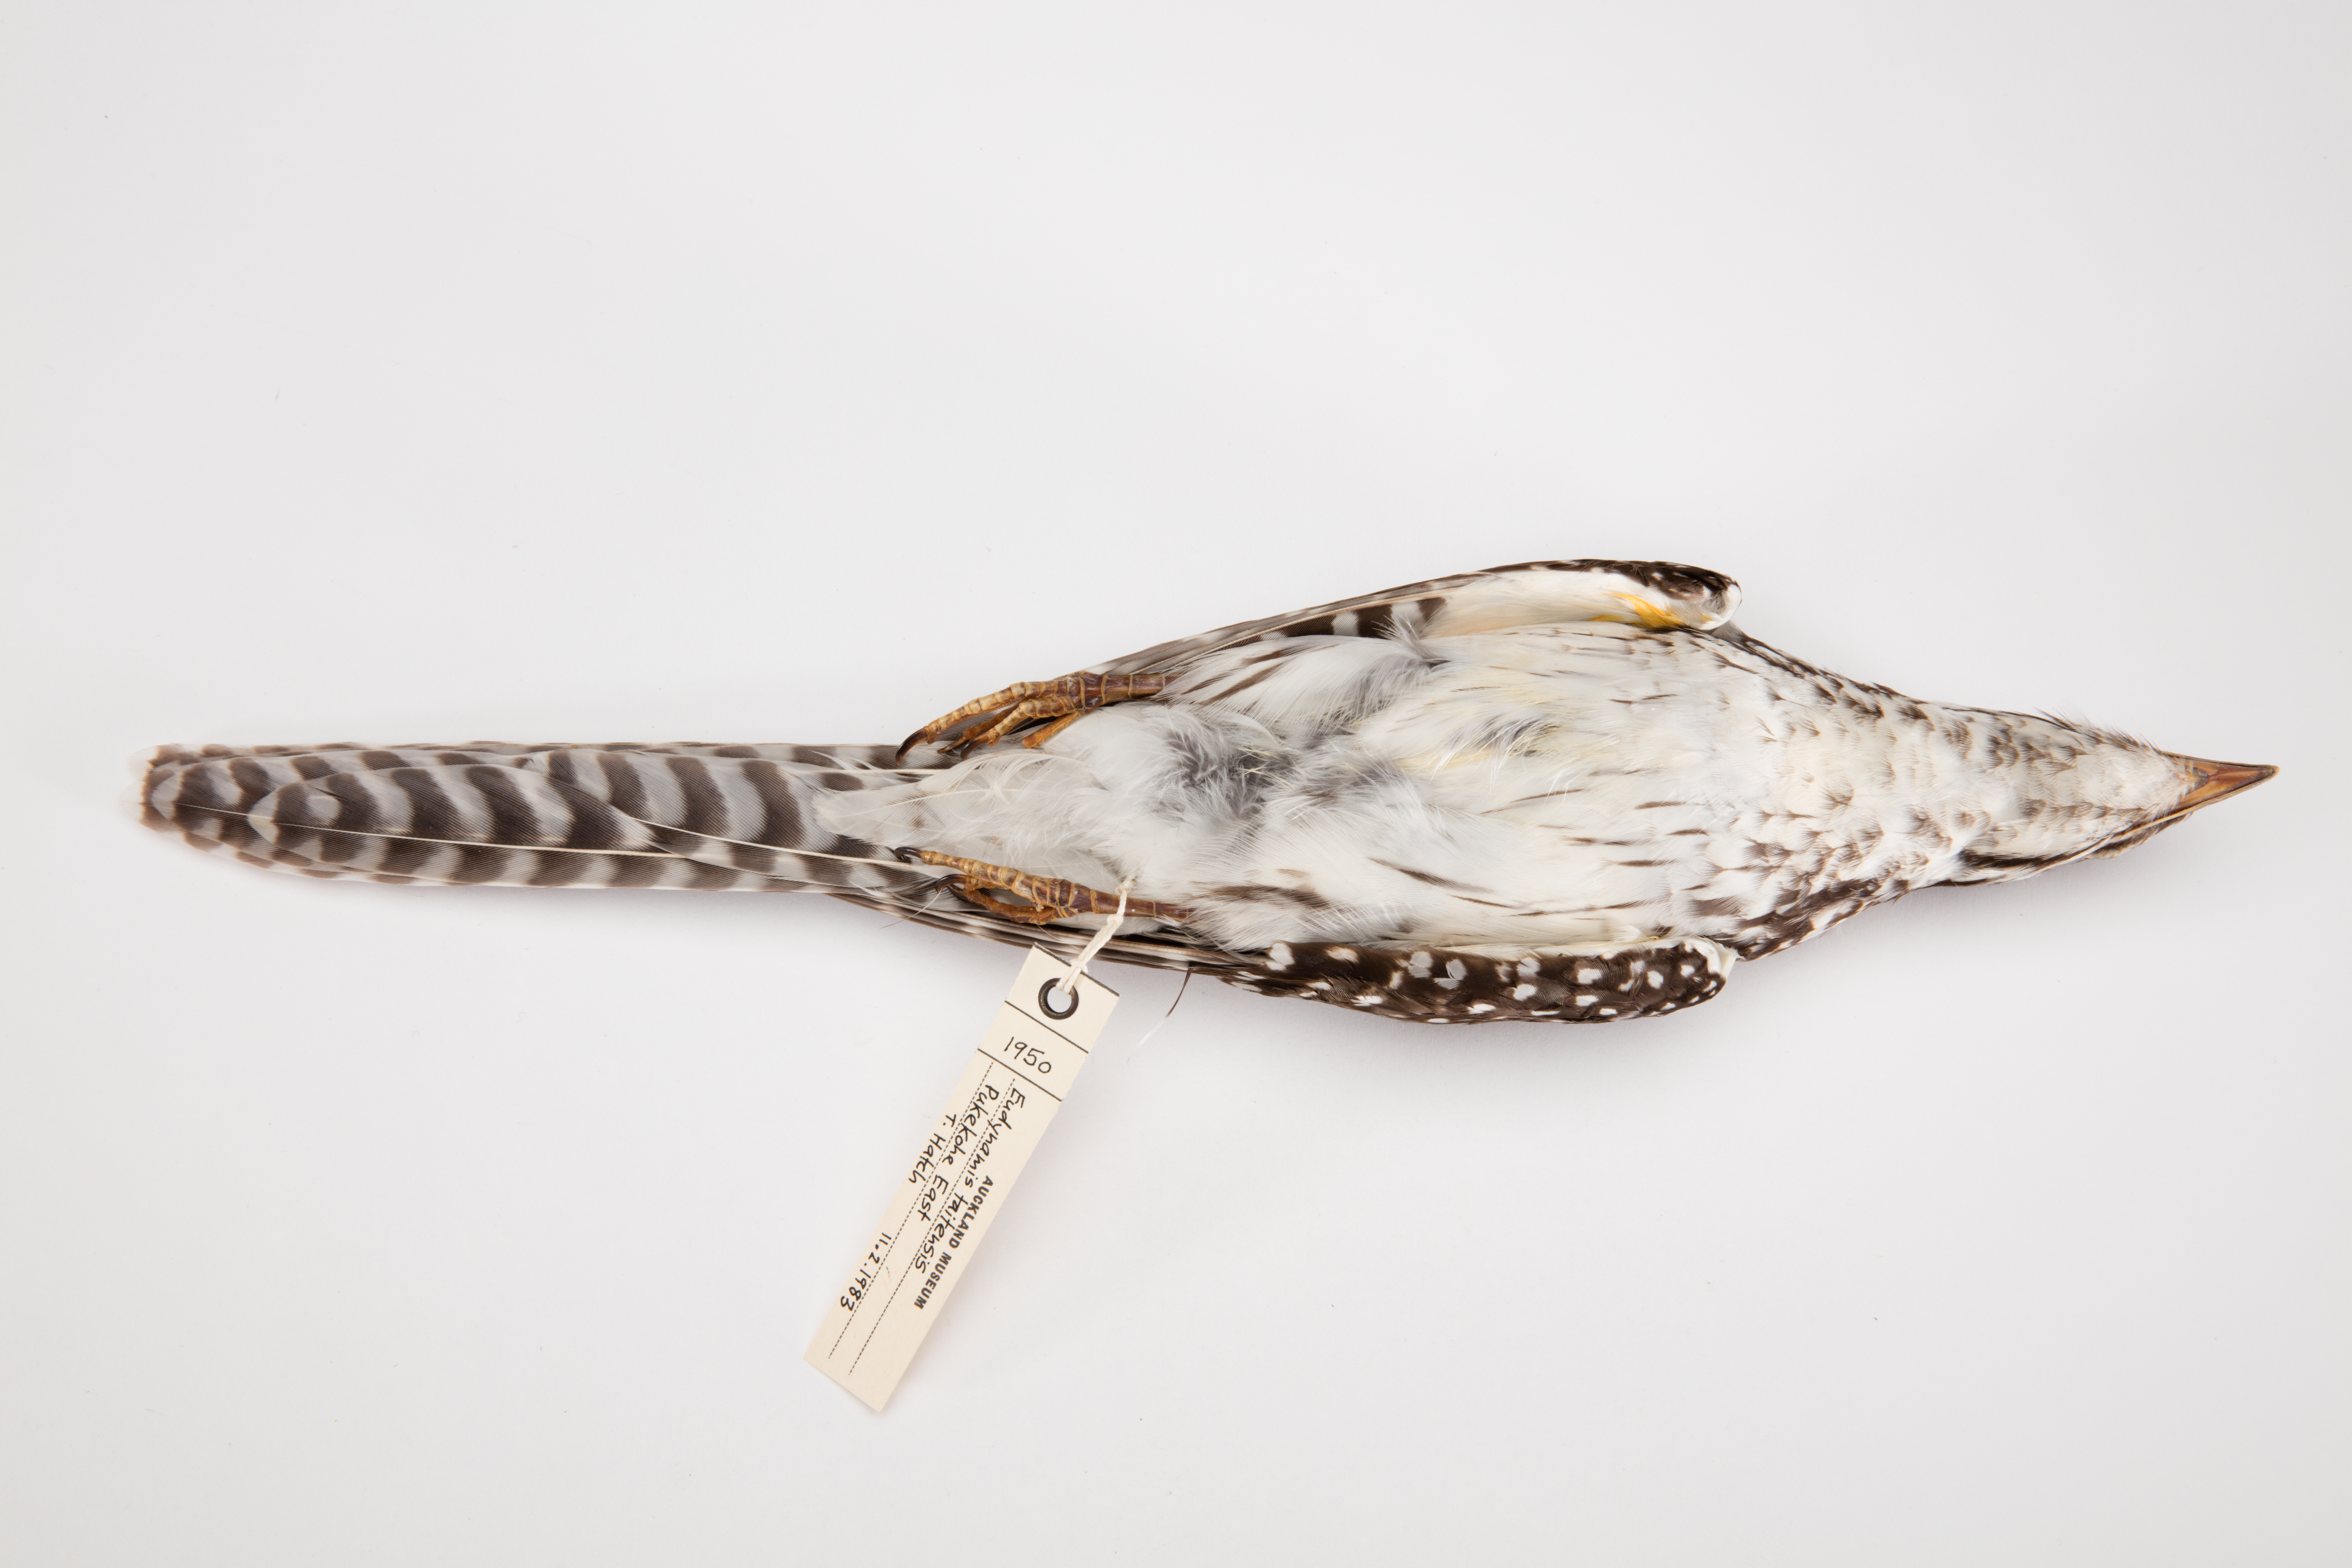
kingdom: Animalia
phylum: Chordata
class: Aves
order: Cuculiformes
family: Cuculidae
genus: Urodynamis
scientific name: Urodynamis taitensis
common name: Long-tailed koel
